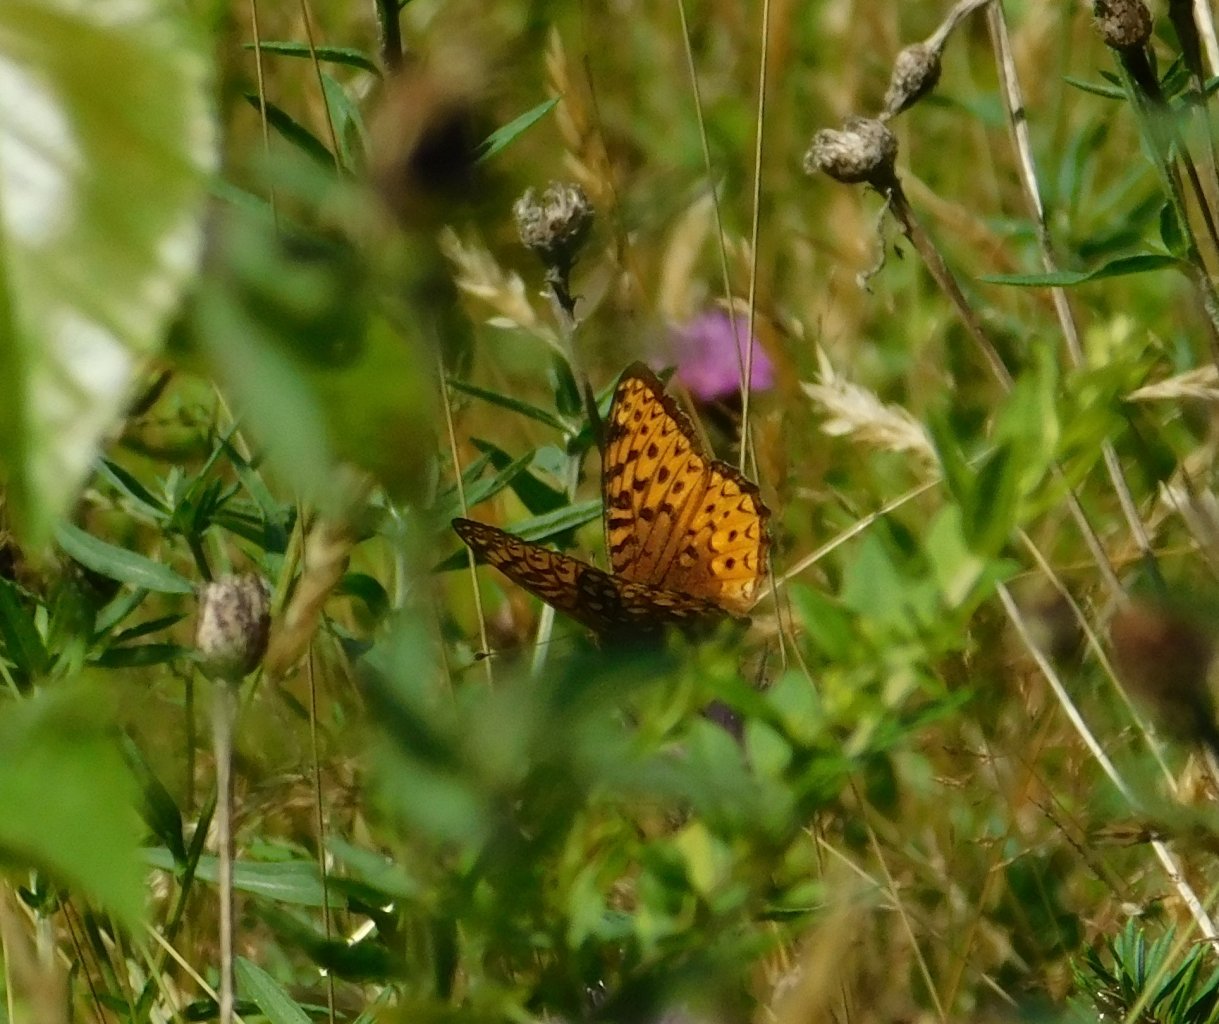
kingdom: Animalia
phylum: Arthropoda
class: Insecta
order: Lepidoptera
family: Nymphalidae
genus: Speyeria
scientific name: Speyeria atlantis
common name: Atlantis Fritillary
